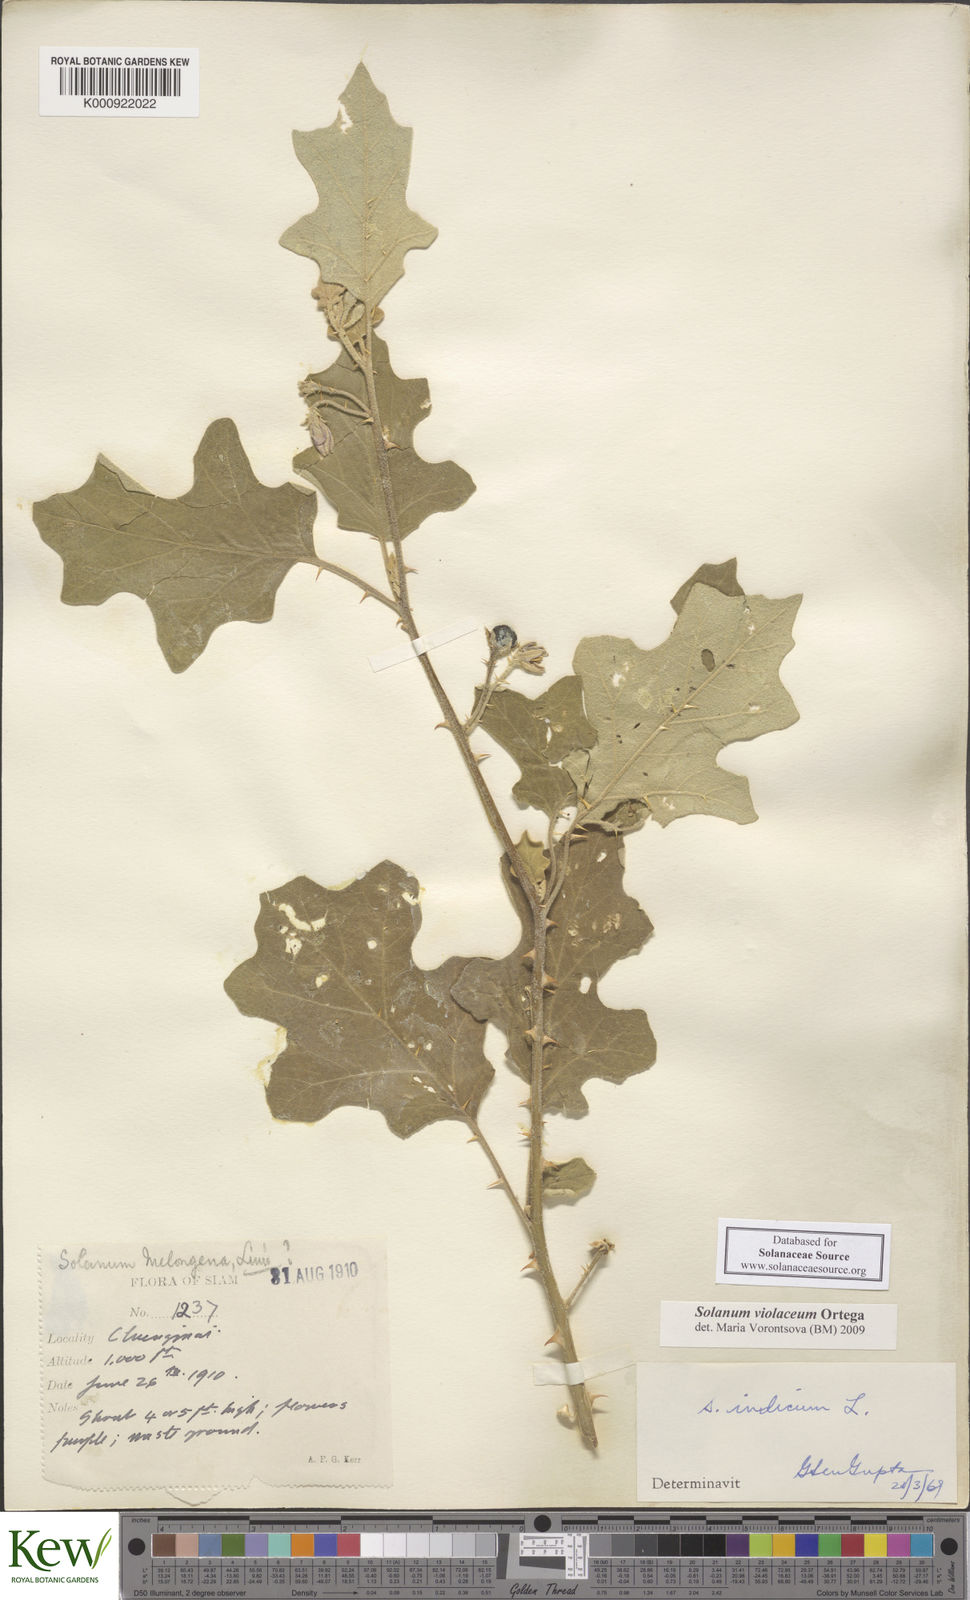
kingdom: Plantae
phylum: Tracheophyta
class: Magnoliopsida
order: Solanales
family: Solanaceae
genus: Solanum
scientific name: Solanum violaceum
